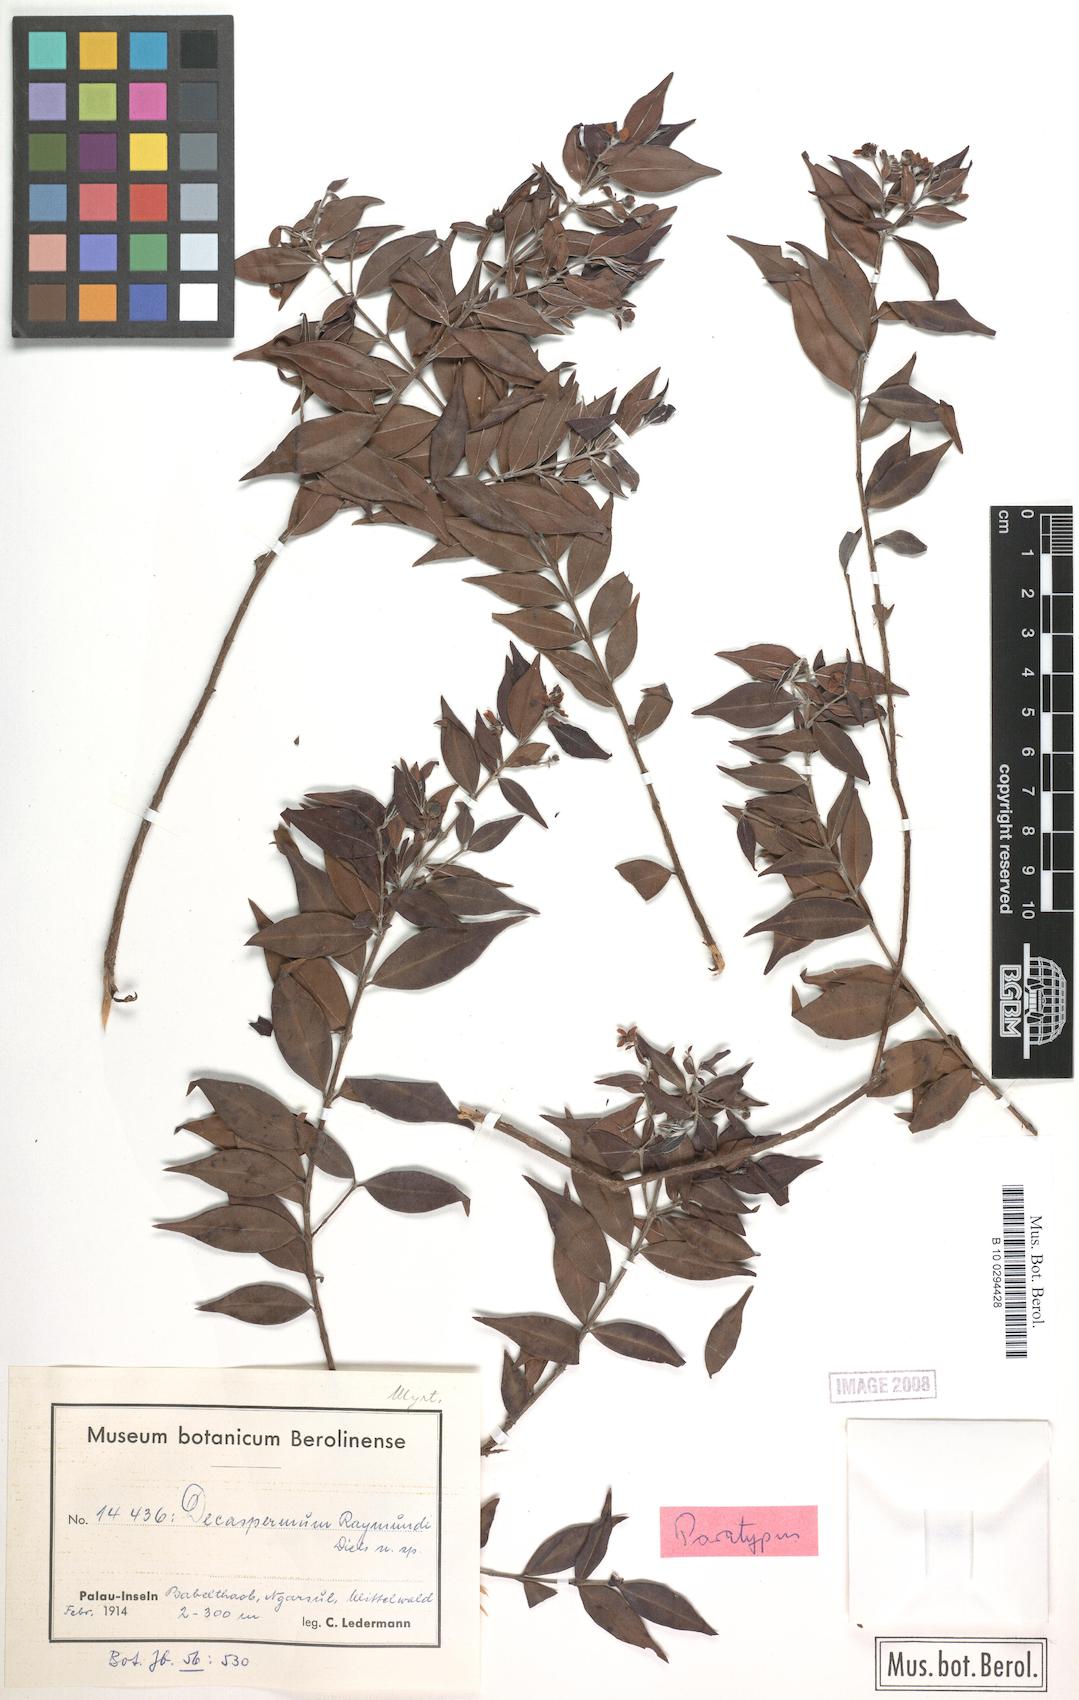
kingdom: Plantae
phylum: Tracheophyta
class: Magnoliopsida
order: Myrtales
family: Myrtaceae
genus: Decaspermum
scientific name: Decaspermum raymundi
